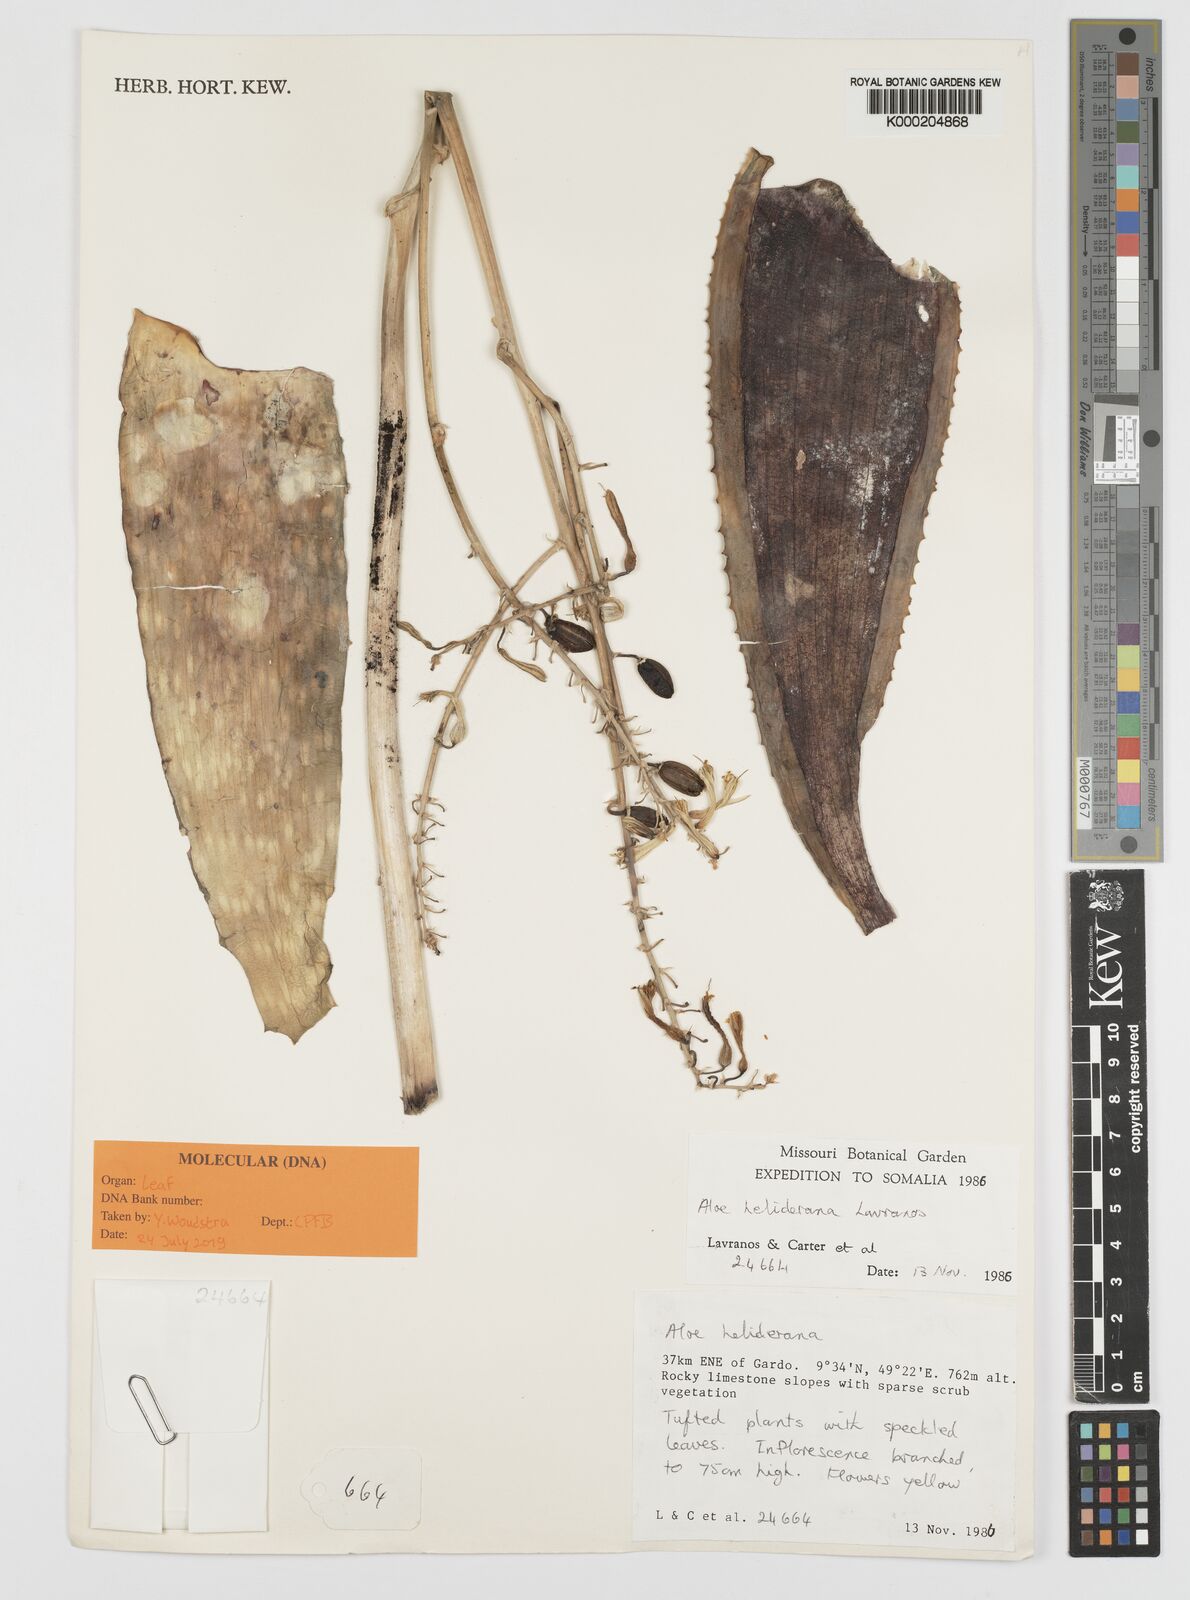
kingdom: Plantae
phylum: Tracheophyta
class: Liliopsida
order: Asparagales
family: Asphodelaceae
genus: Aloe
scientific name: Aloe heliderana
